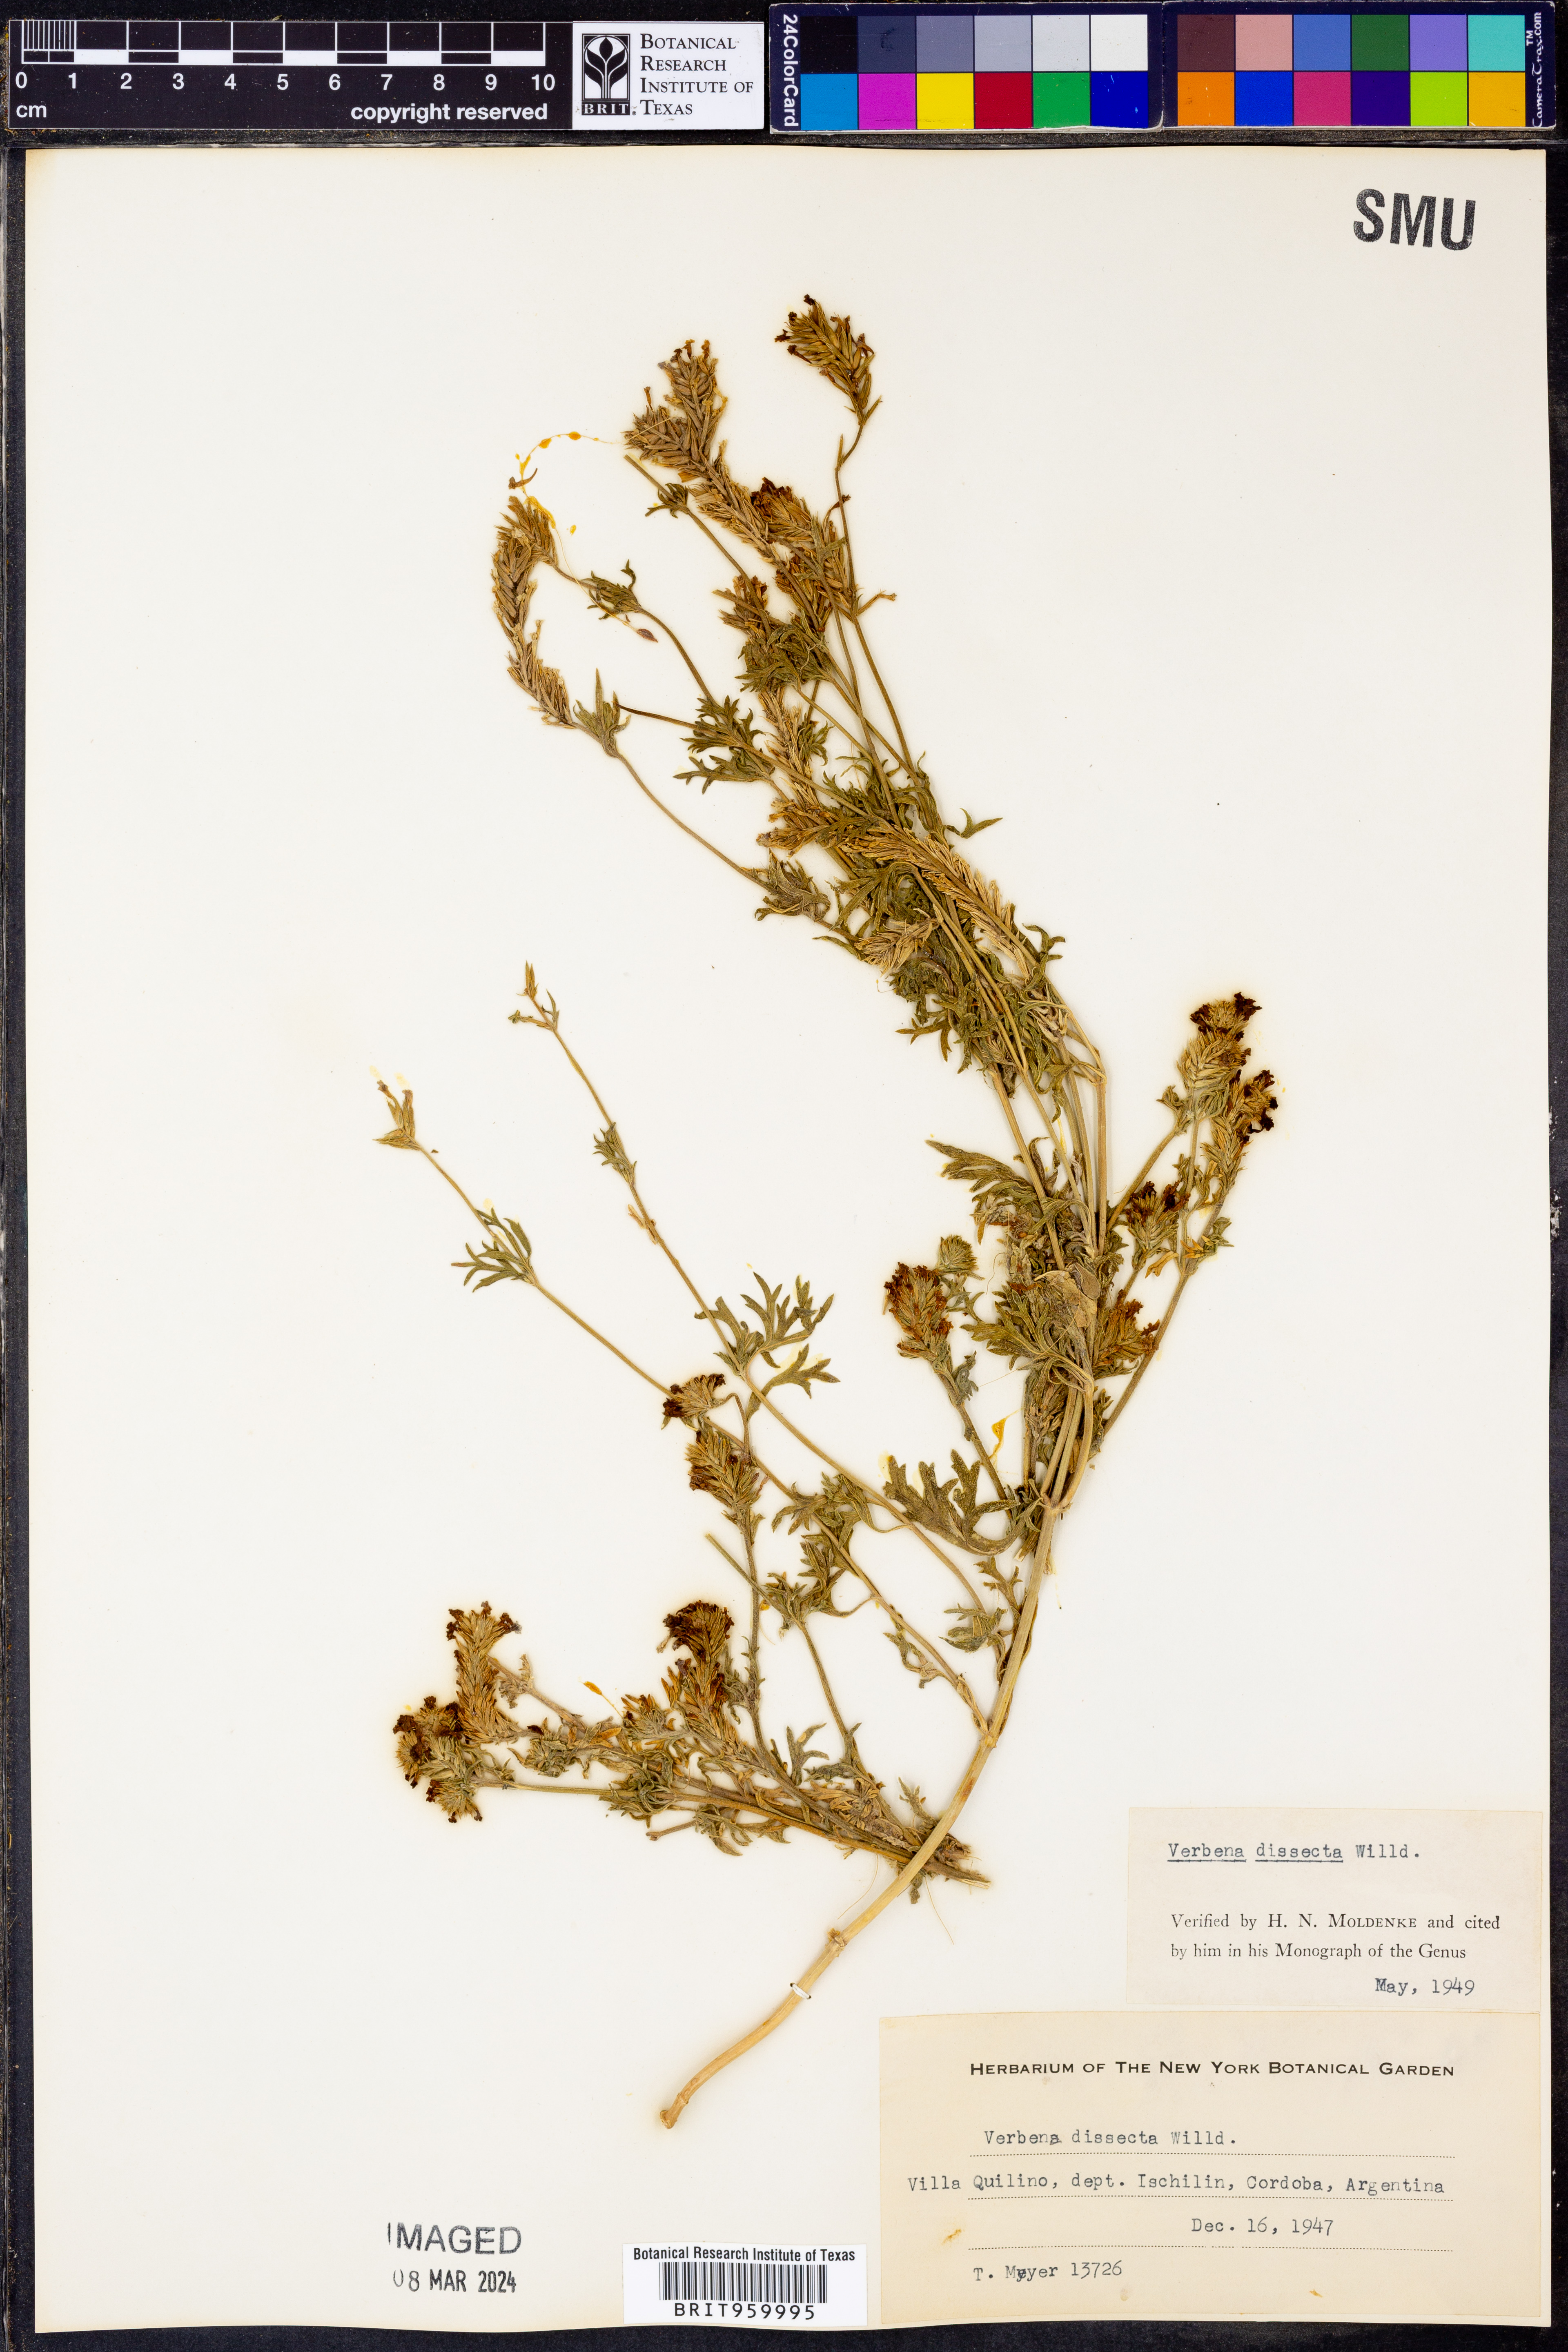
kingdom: Plantae
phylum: Tracheophyta
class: Magnoliopsida
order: Lamiales
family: Verbenaceae
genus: Verbena
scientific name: Verbena
